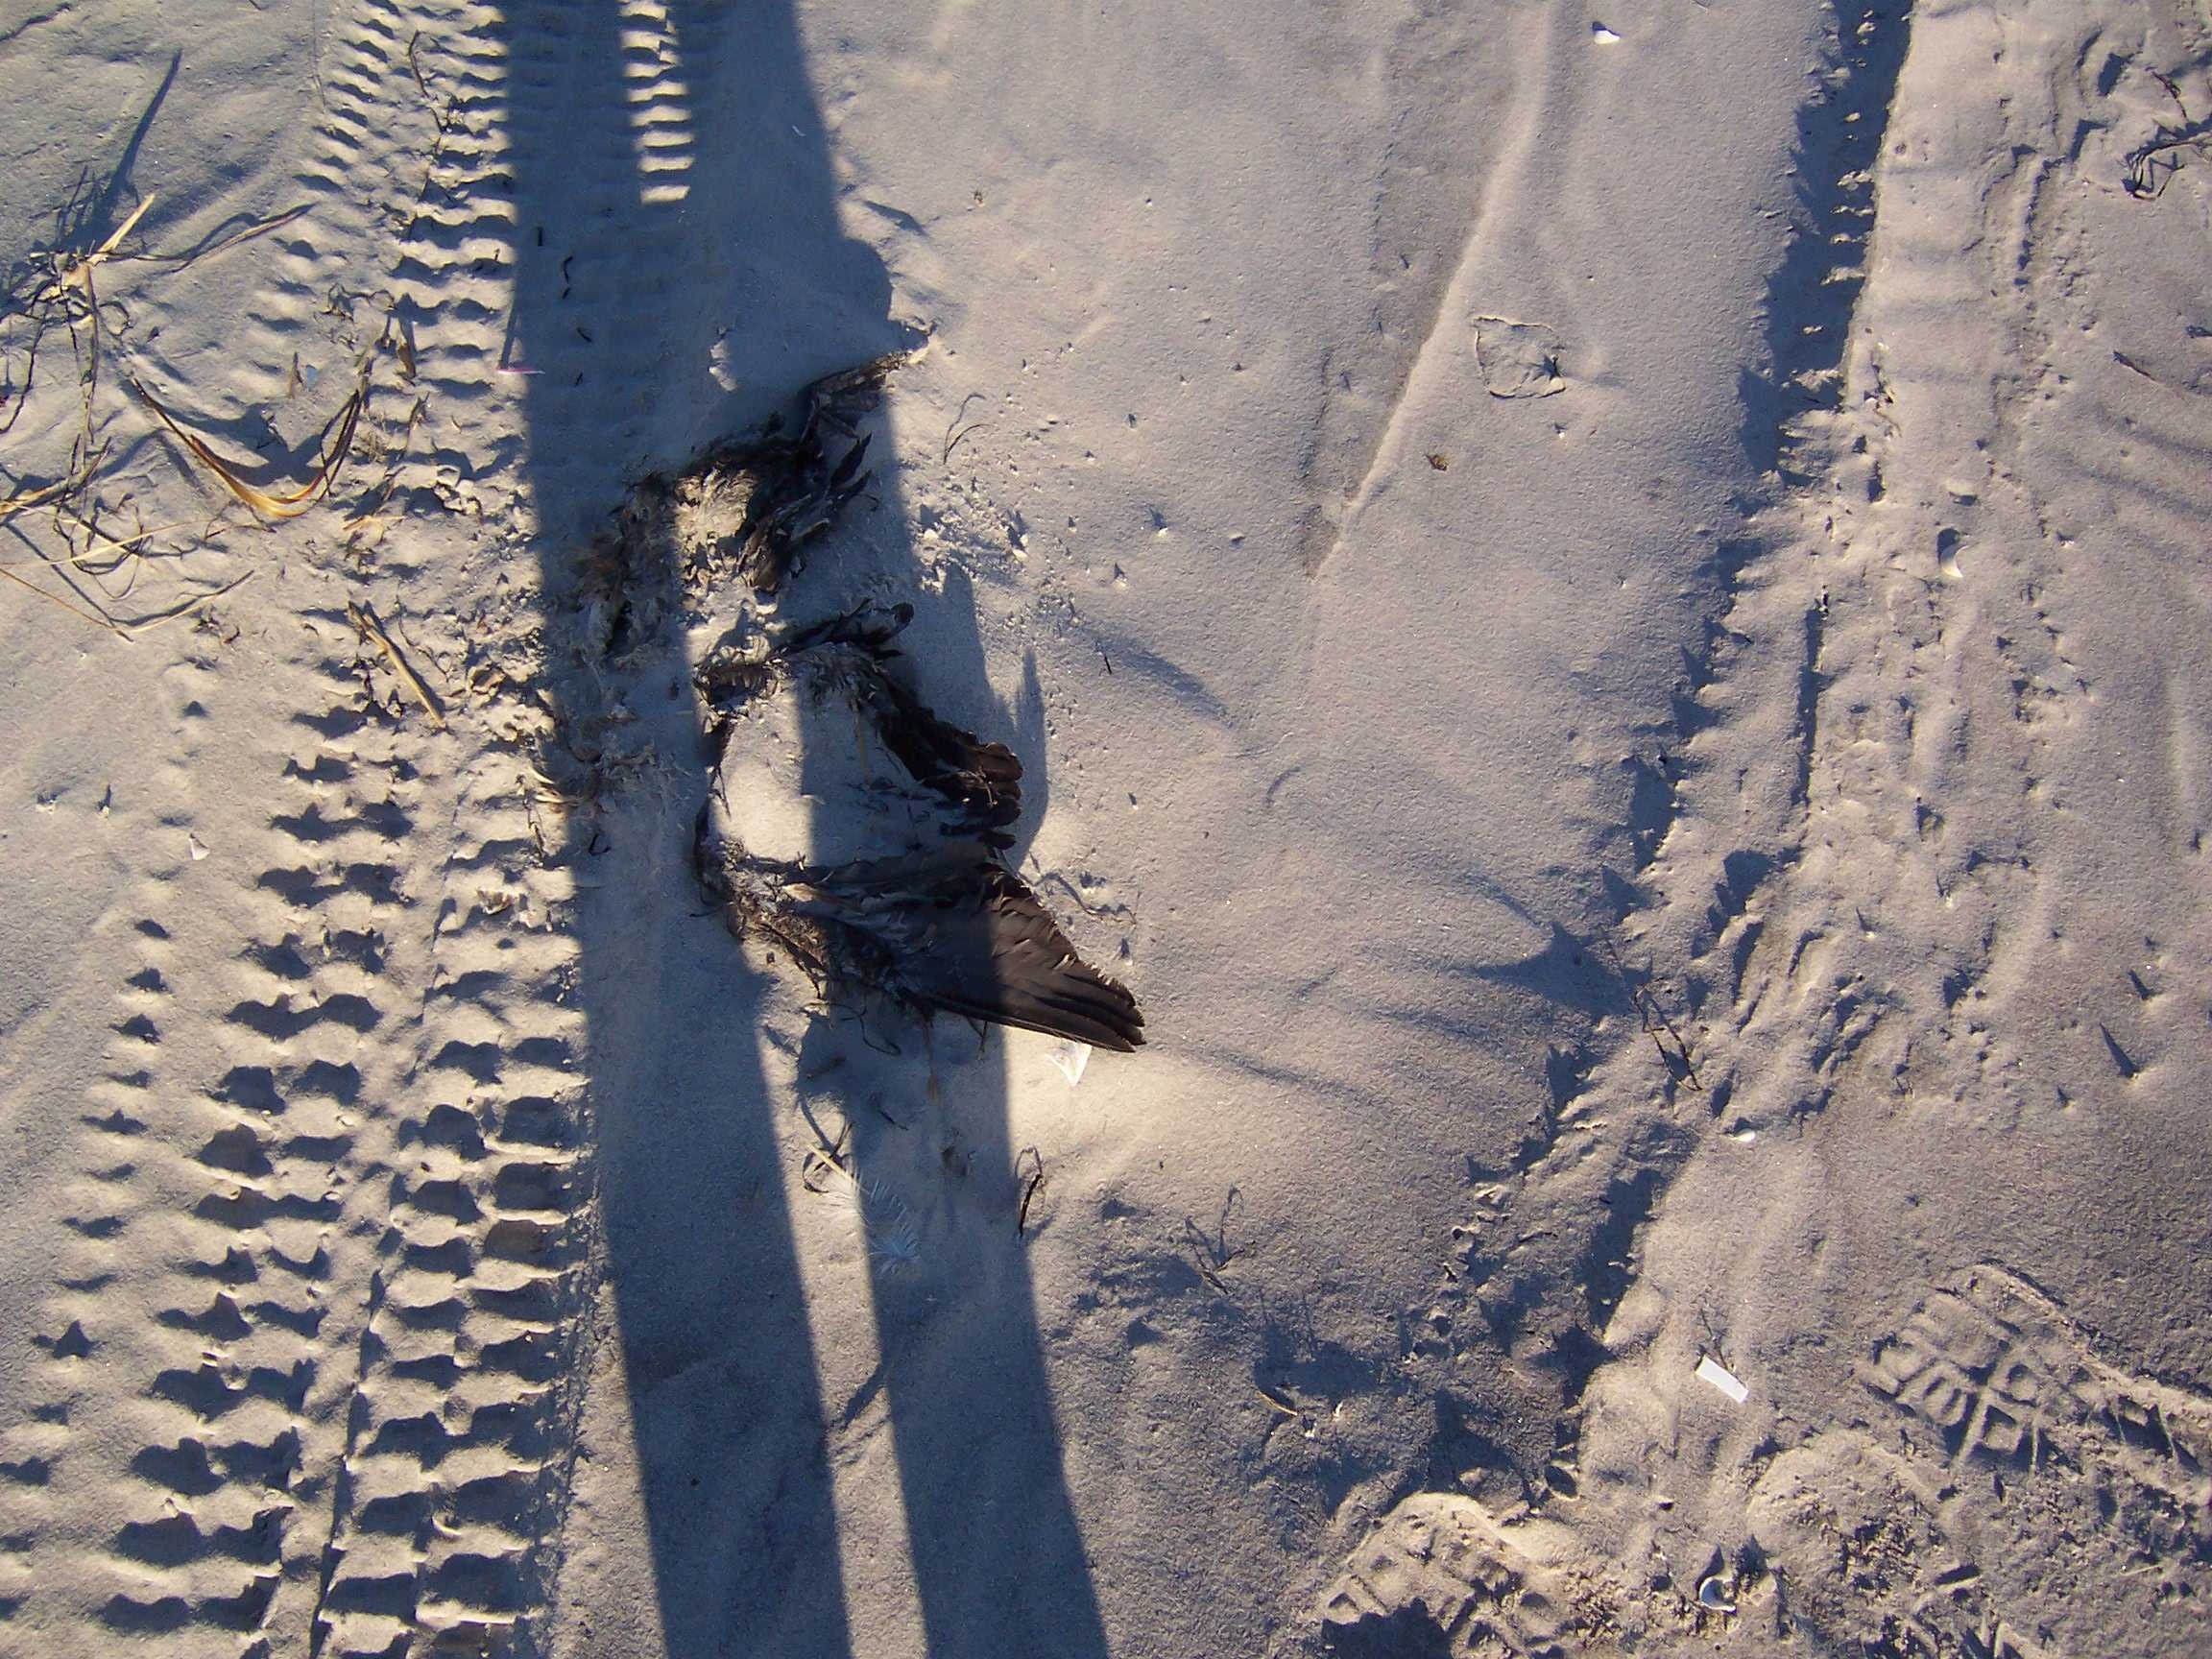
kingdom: Animalia
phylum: Chordata
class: Aves
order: Suliformes
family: Phalacrocoracidae
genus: Phalacrocorax
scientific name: Phalacrocorax auritus
